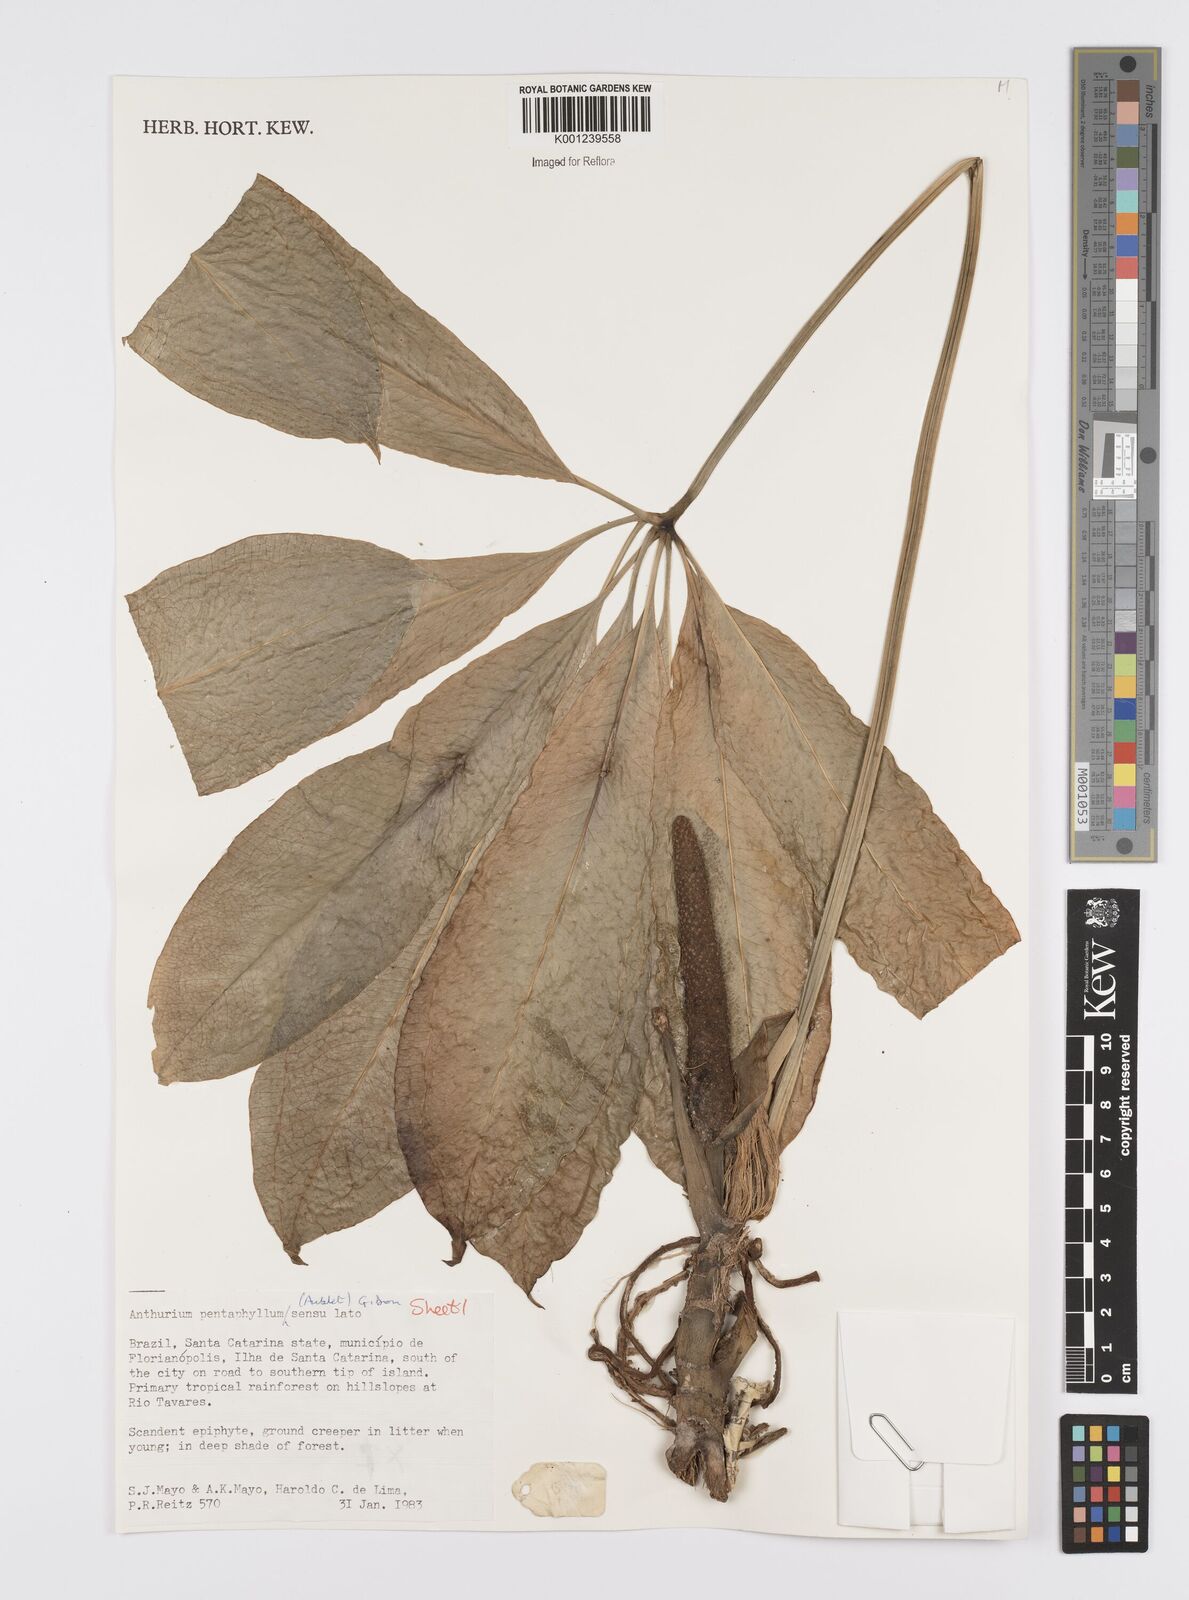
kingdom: Plantae
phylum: Tracheophyta
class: Liliopsida
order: Alismatales
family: Araceae
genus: Anthurium
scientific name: Anthurium pentaphyllum
